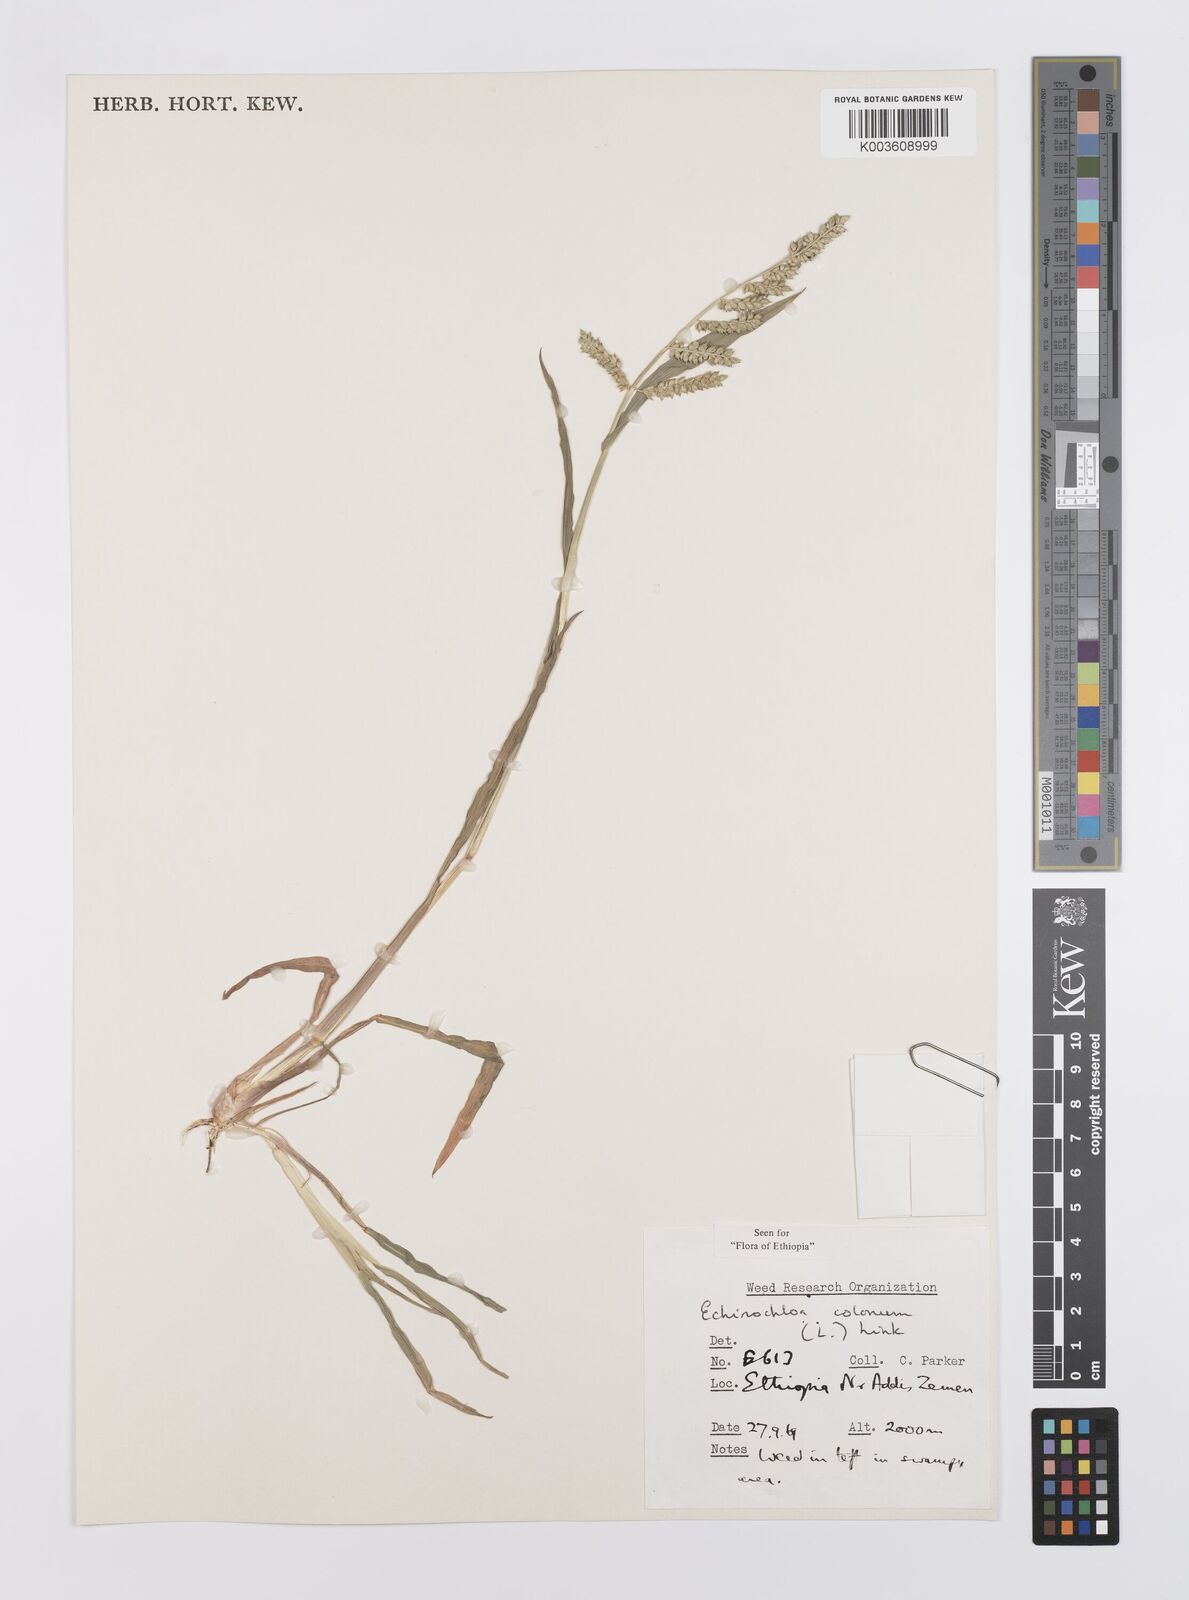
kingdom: Plantae
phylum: Tracheophyta
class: Liliopsida
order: Poales
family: Poaceae
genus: Echinochloa
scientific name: Echinochloa colonum
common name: Jungle rice
